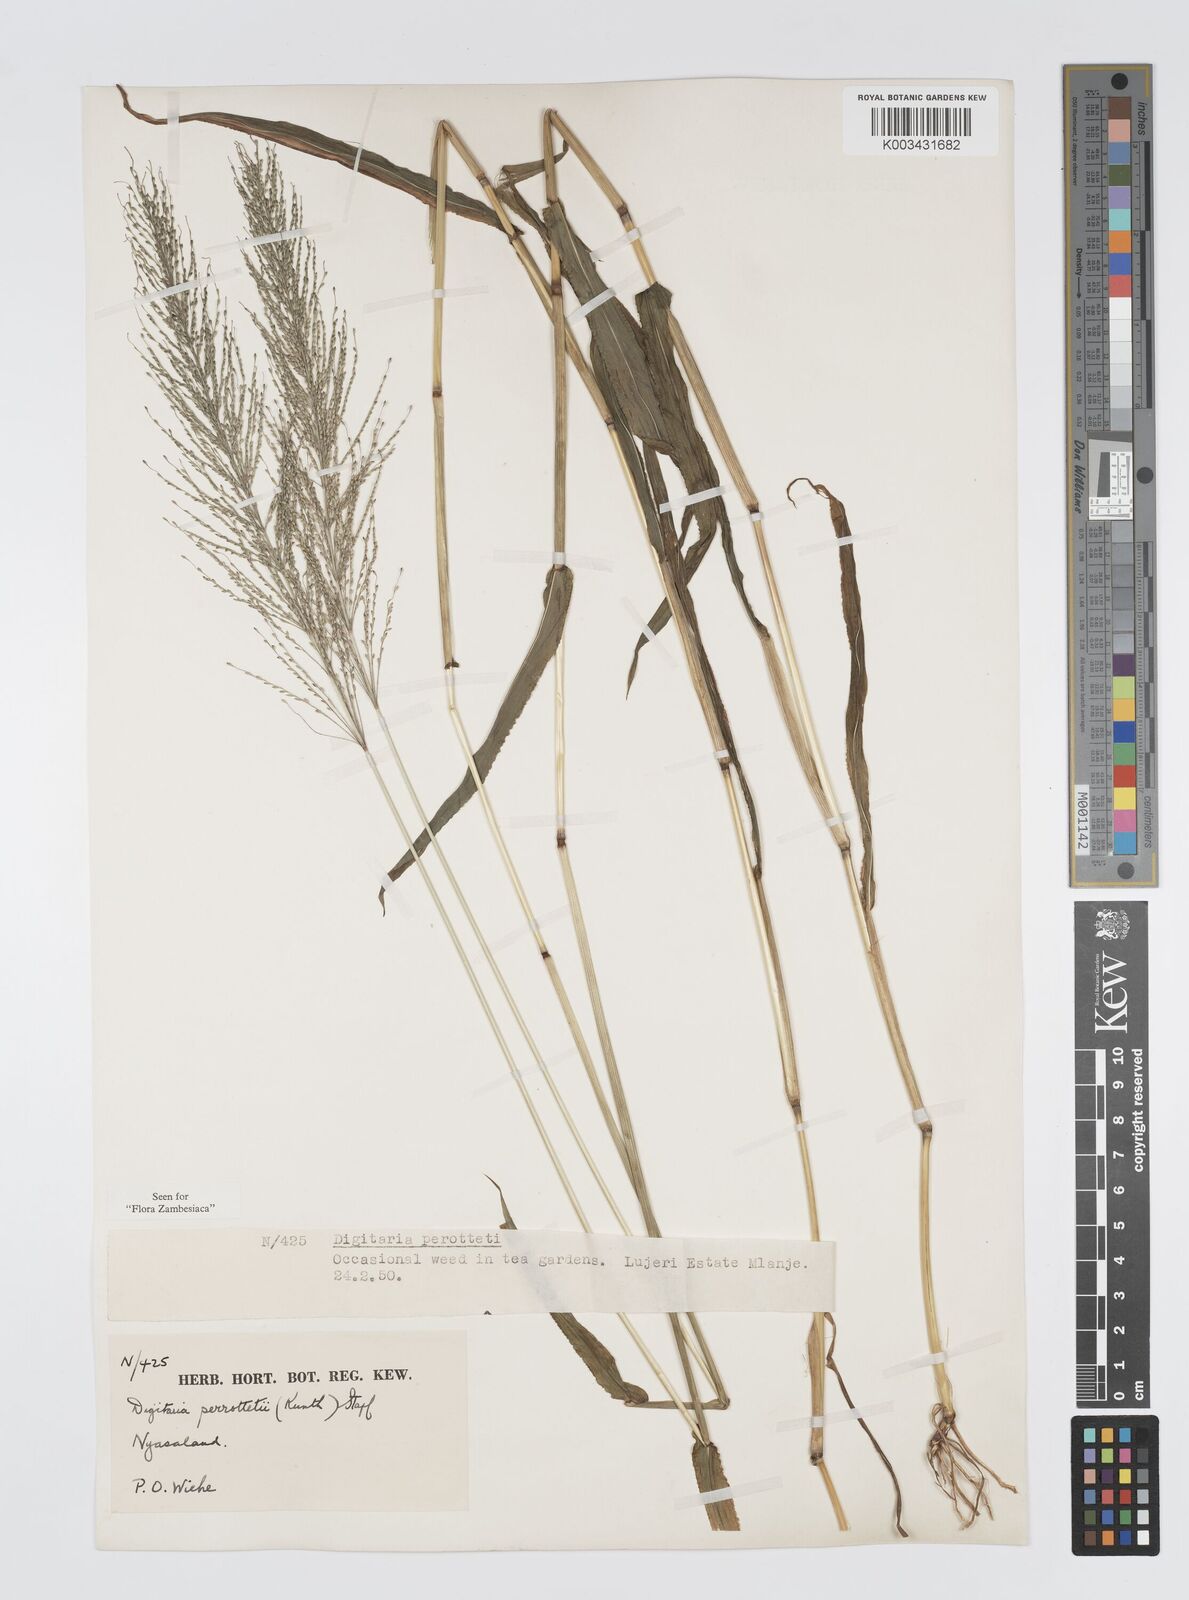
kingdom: Plantae
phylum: Tracheophyta
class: Liliopsida
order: Poales
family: Poaceae
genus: Digitaria
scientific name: Digitaria perrottetii
